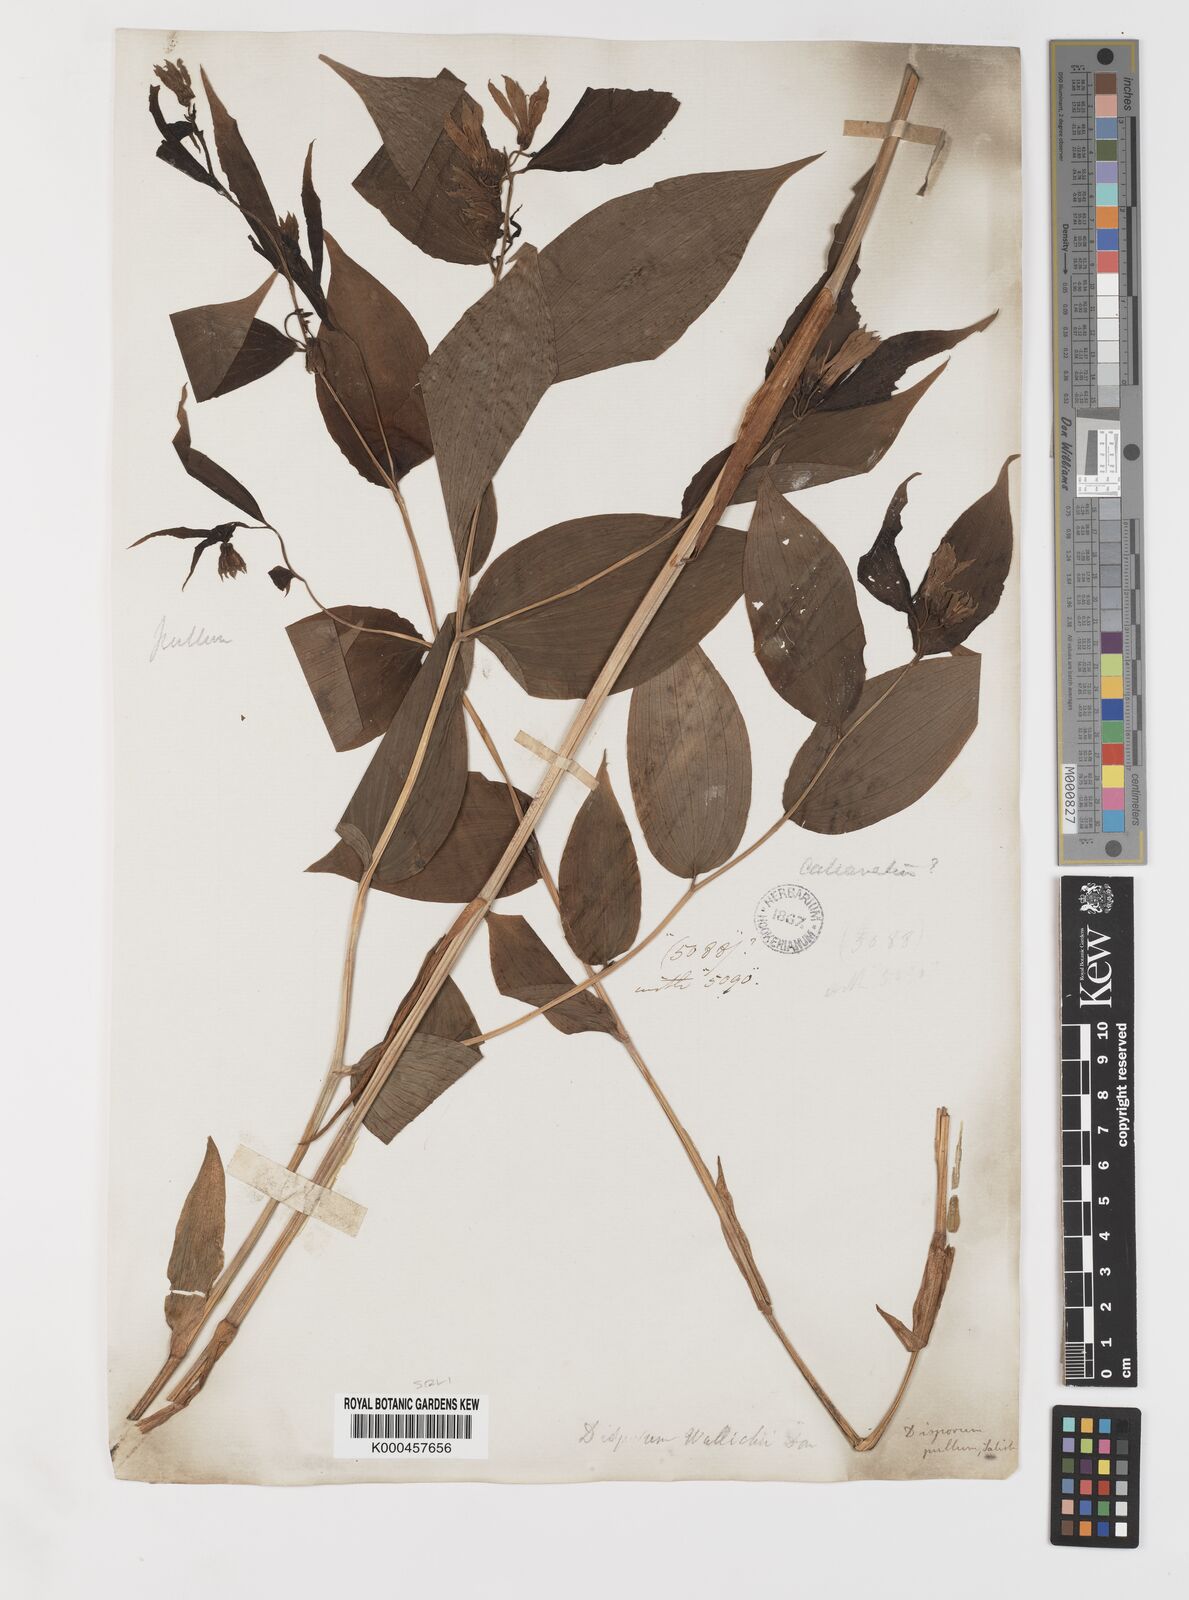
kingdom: Plantae
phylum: Tracheophyta
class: Liliopsida
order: Liliales
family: Colchicaceae
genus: Disporum
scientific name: Disporum calcaratum
